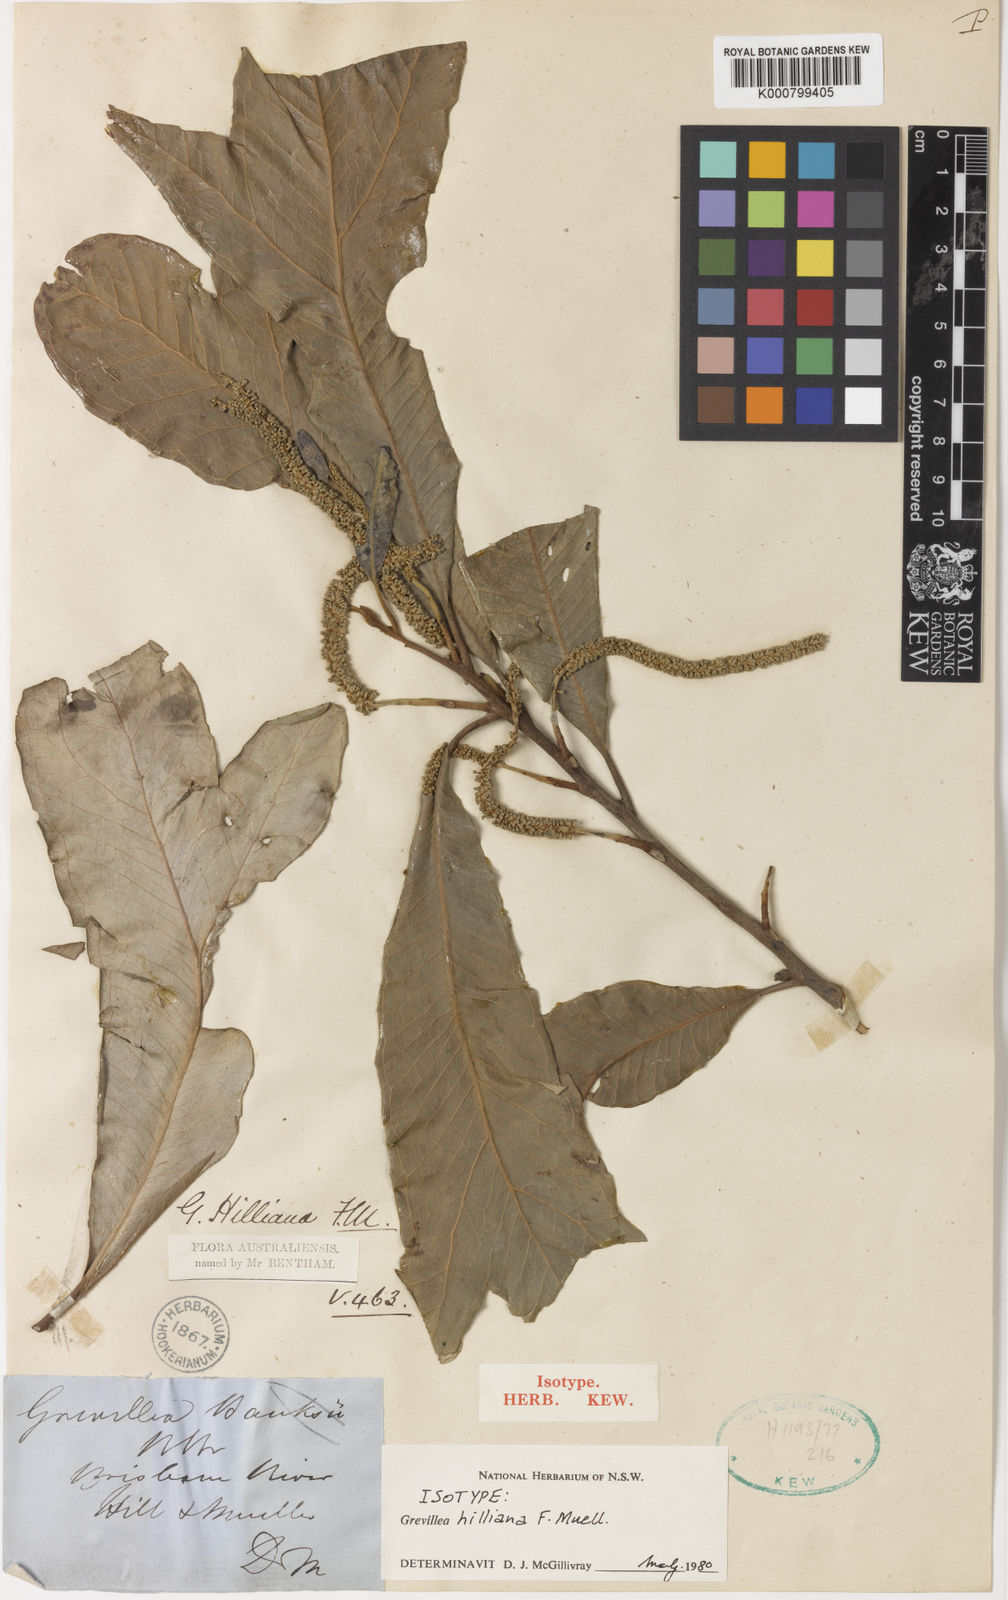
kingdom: Plantae
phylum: Tracheophyta
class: Magnoliopsida
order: Proteales
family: Proteaceae
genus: Grevillea
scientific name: Grevillea hilliana
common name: White silky-oak
